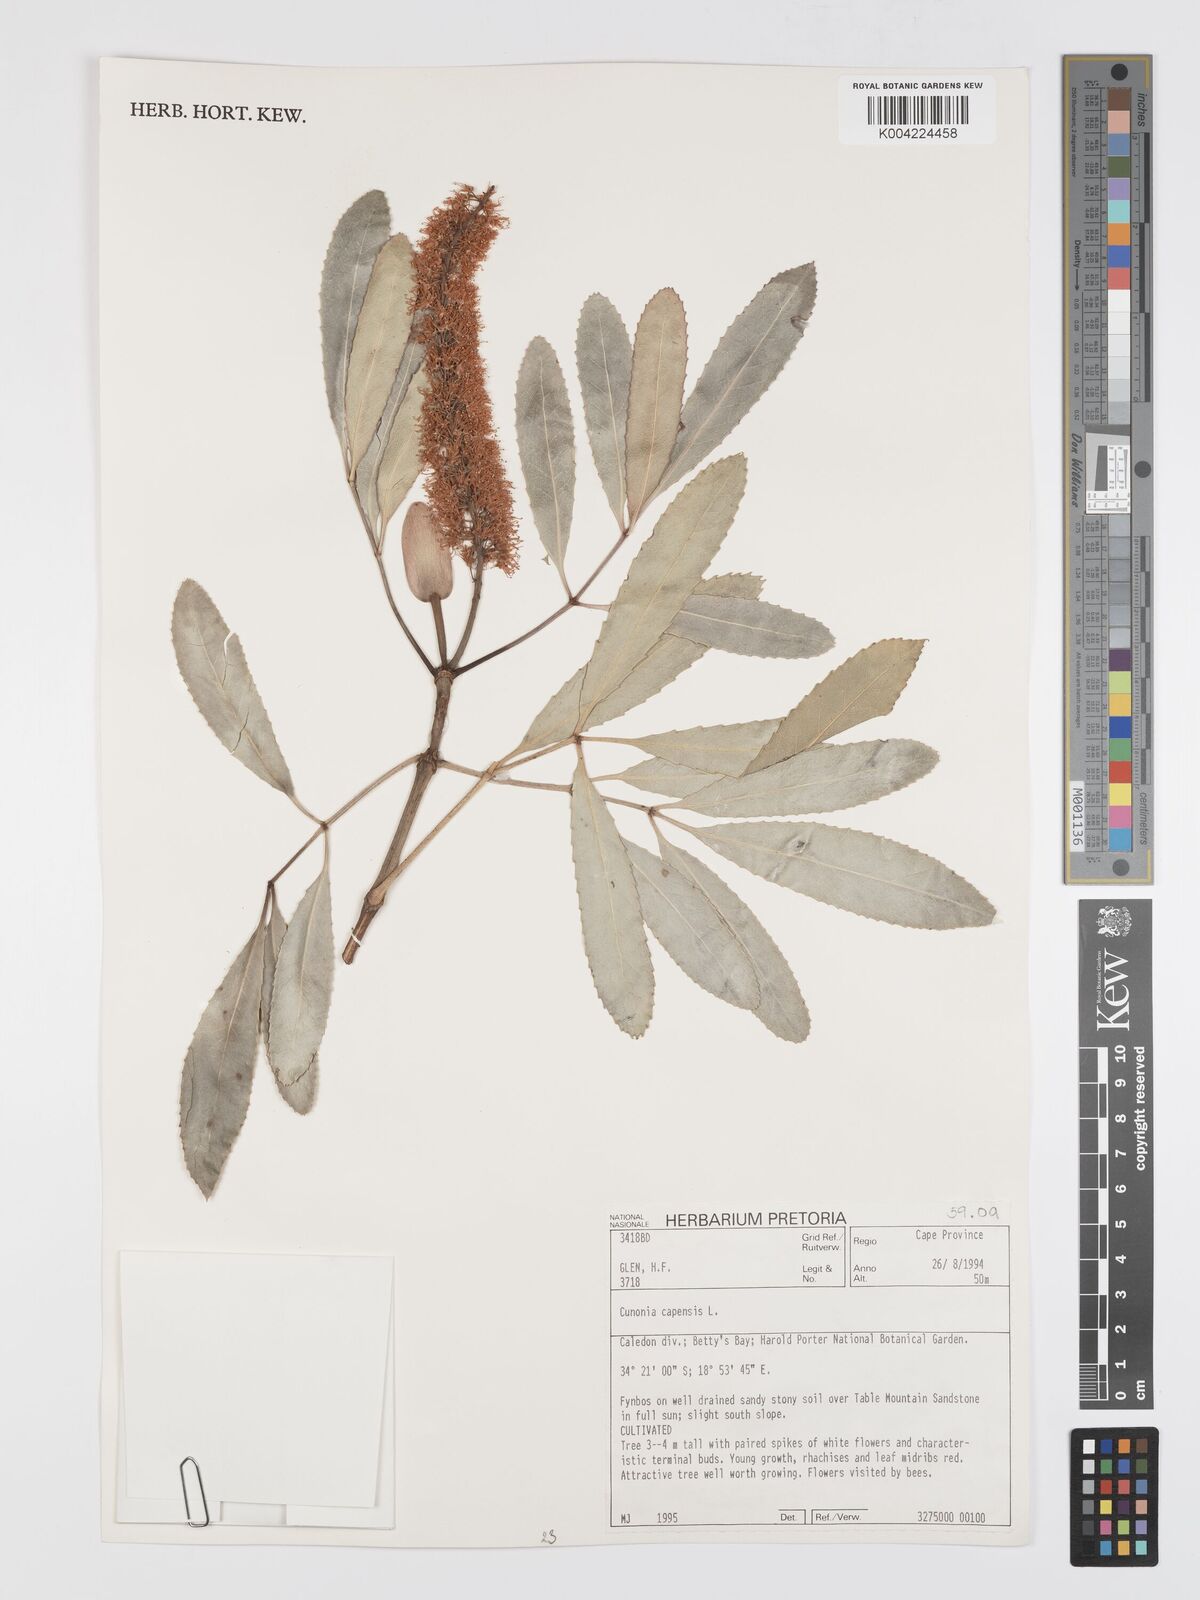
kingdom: Plantae
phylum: Tracheophyta
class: Magnoliopsida
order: Oxalidales
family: Cunoniaceae
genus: Cunonia
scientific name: Cunonia capensis
